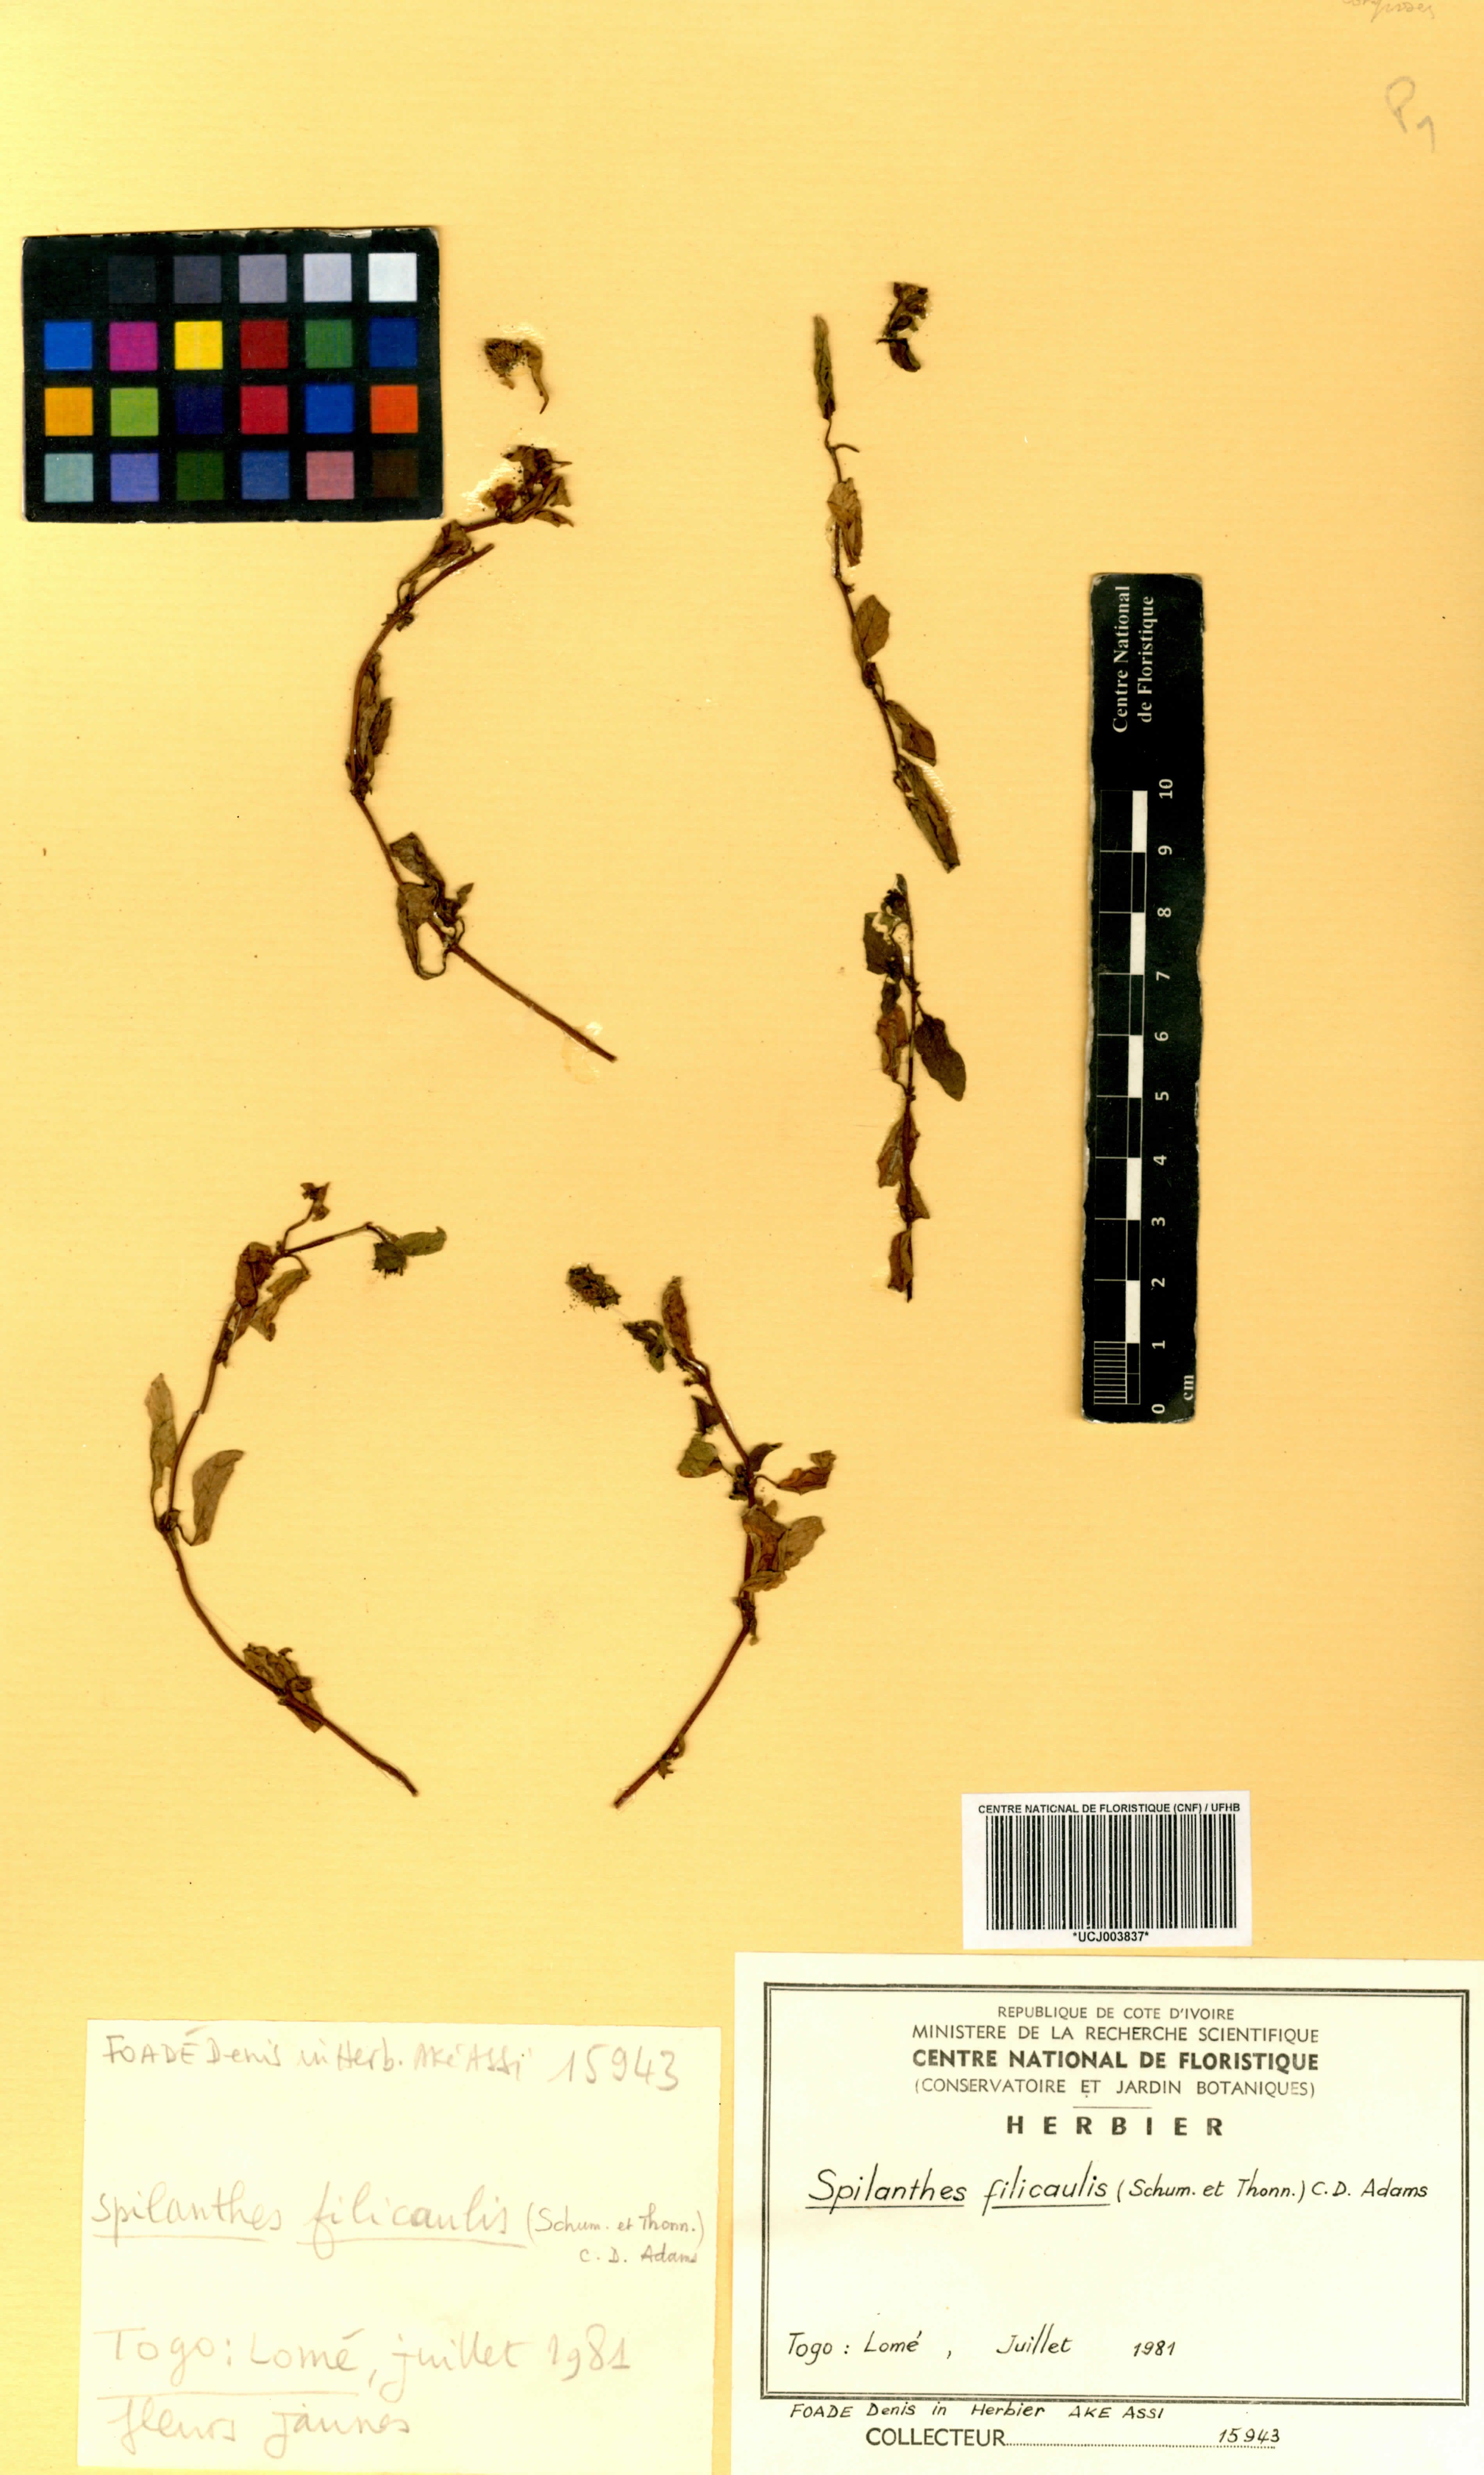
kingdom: Plantae
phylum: Tracheophyta
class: Magnoliopsida
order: Asterales
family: Asteraceae
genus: Acmella
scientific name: Acmella caulirhiza
